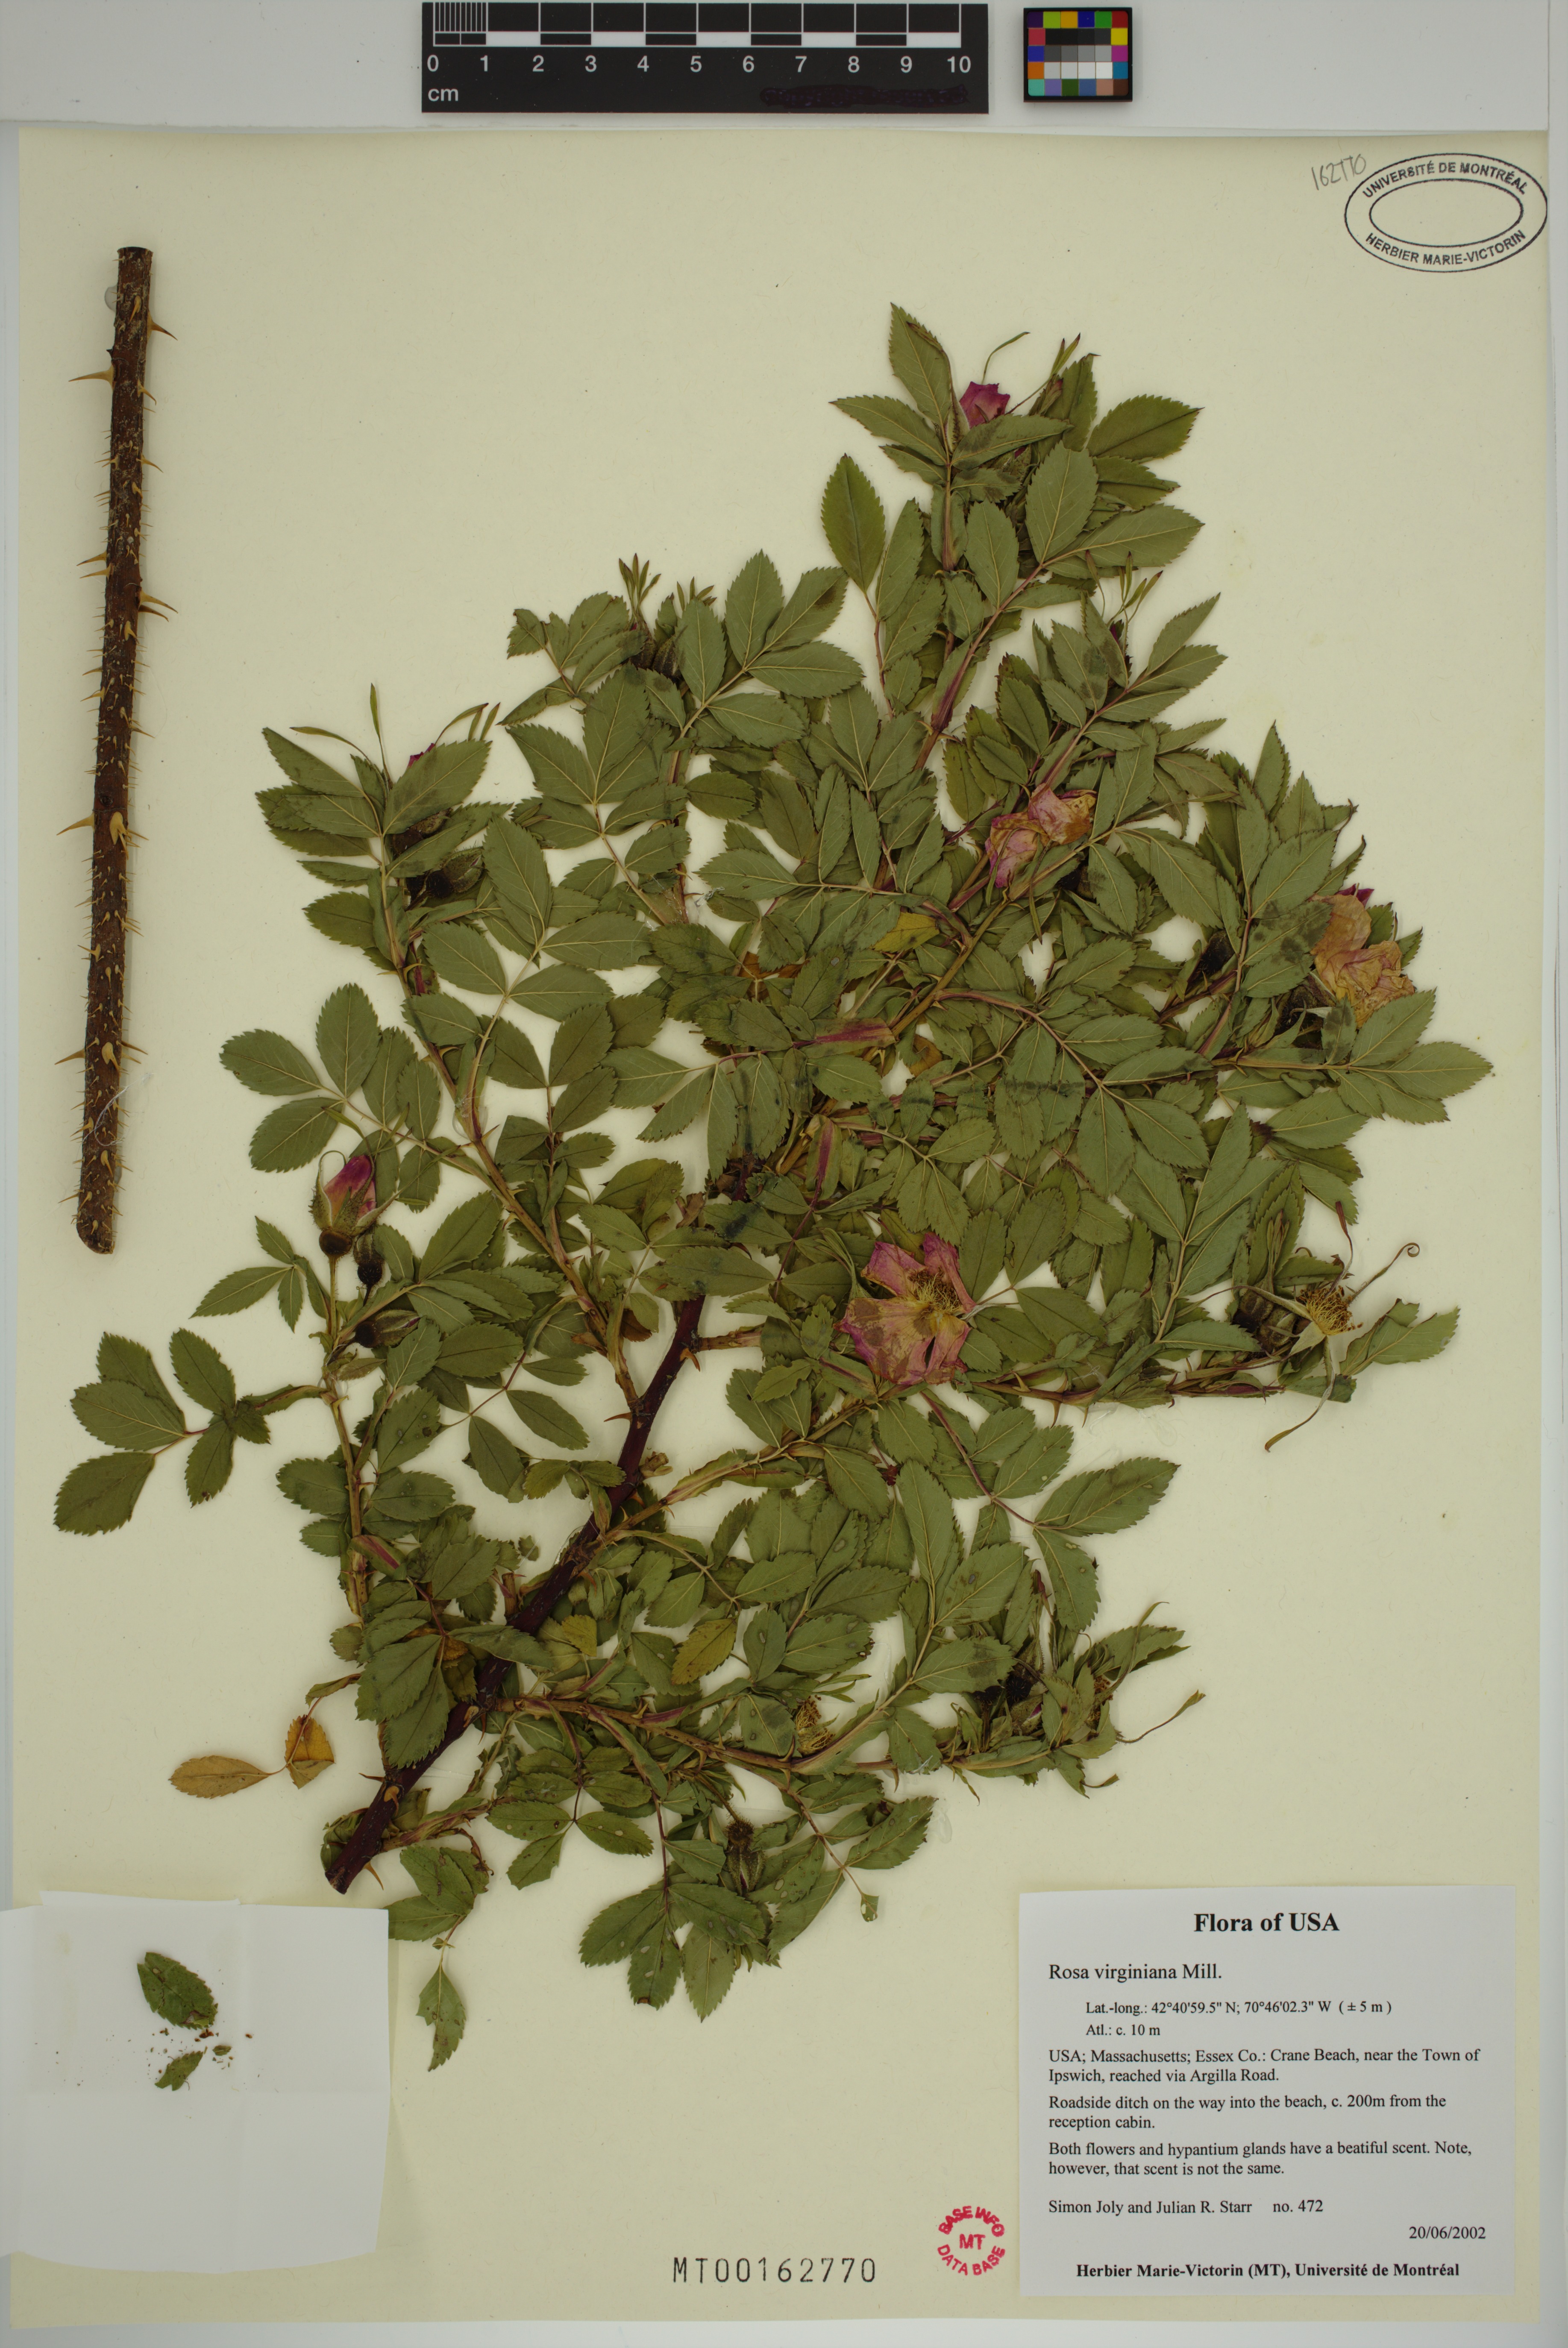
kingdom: Plantae
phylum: Tracheophyta
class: Magnoliopsida
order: Rosales
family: Rosaceae
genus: Rosa
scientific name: Rosa carolina
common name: Pasture rose
